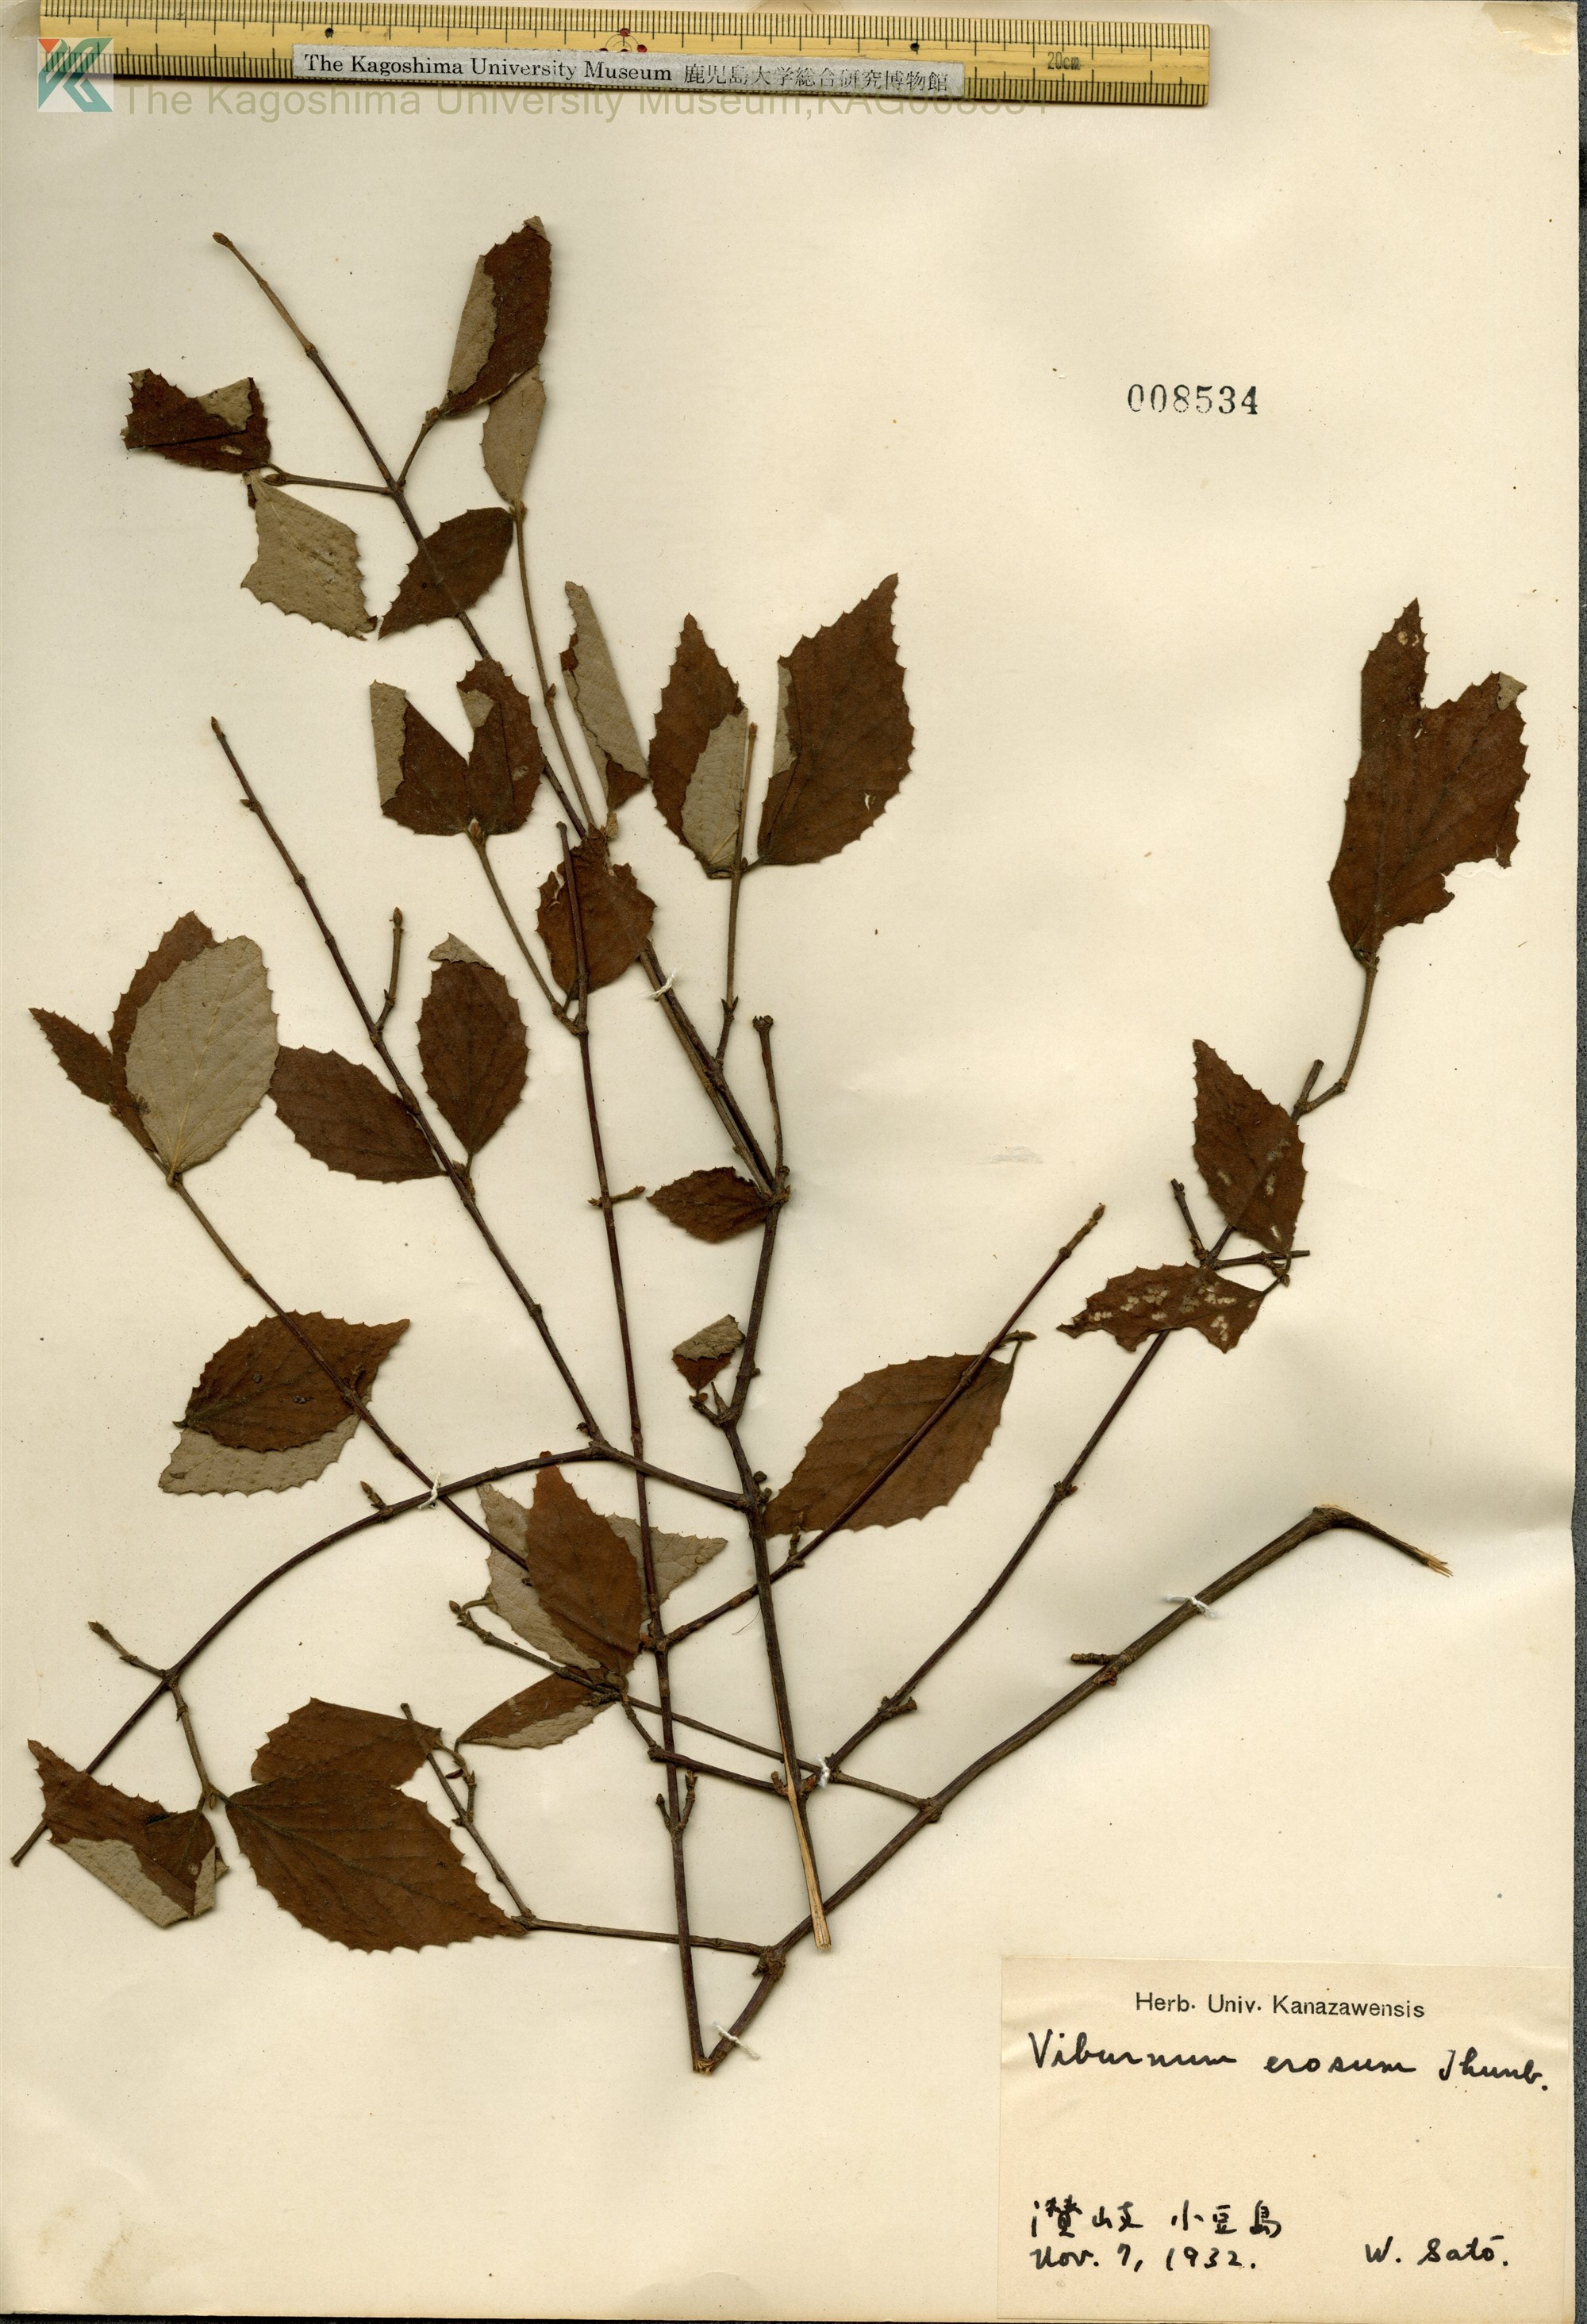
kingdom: Plantae
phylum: Tracheophyta
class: Magnoliopsida
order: Dipsacales
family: Viburnaceae
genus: Viburnum
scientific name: Viburnum erosum
